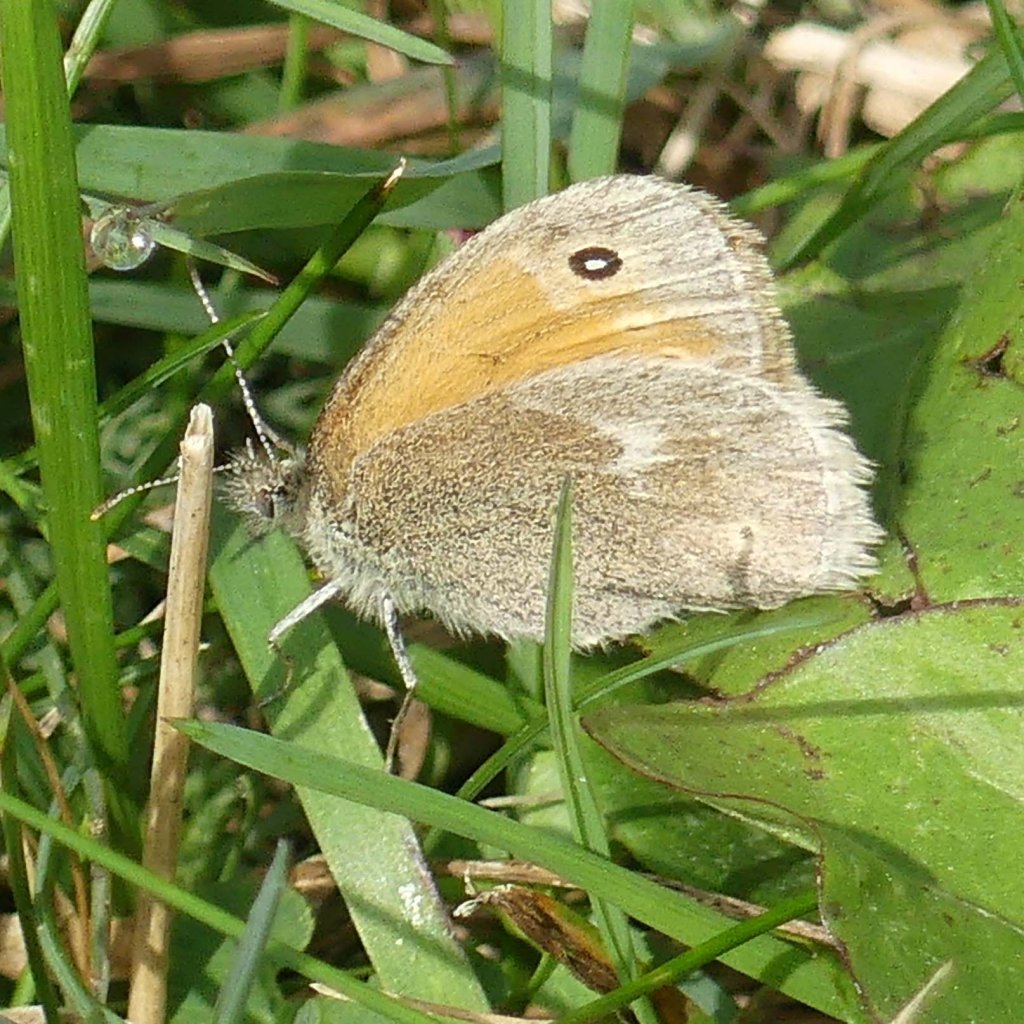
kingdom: Animalia
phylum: Arthropoda
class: Insecta
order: Lepidoptera
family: Nymphalidae
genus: Coenonympha
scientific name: Coenonympha tullia
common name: Large Heath
